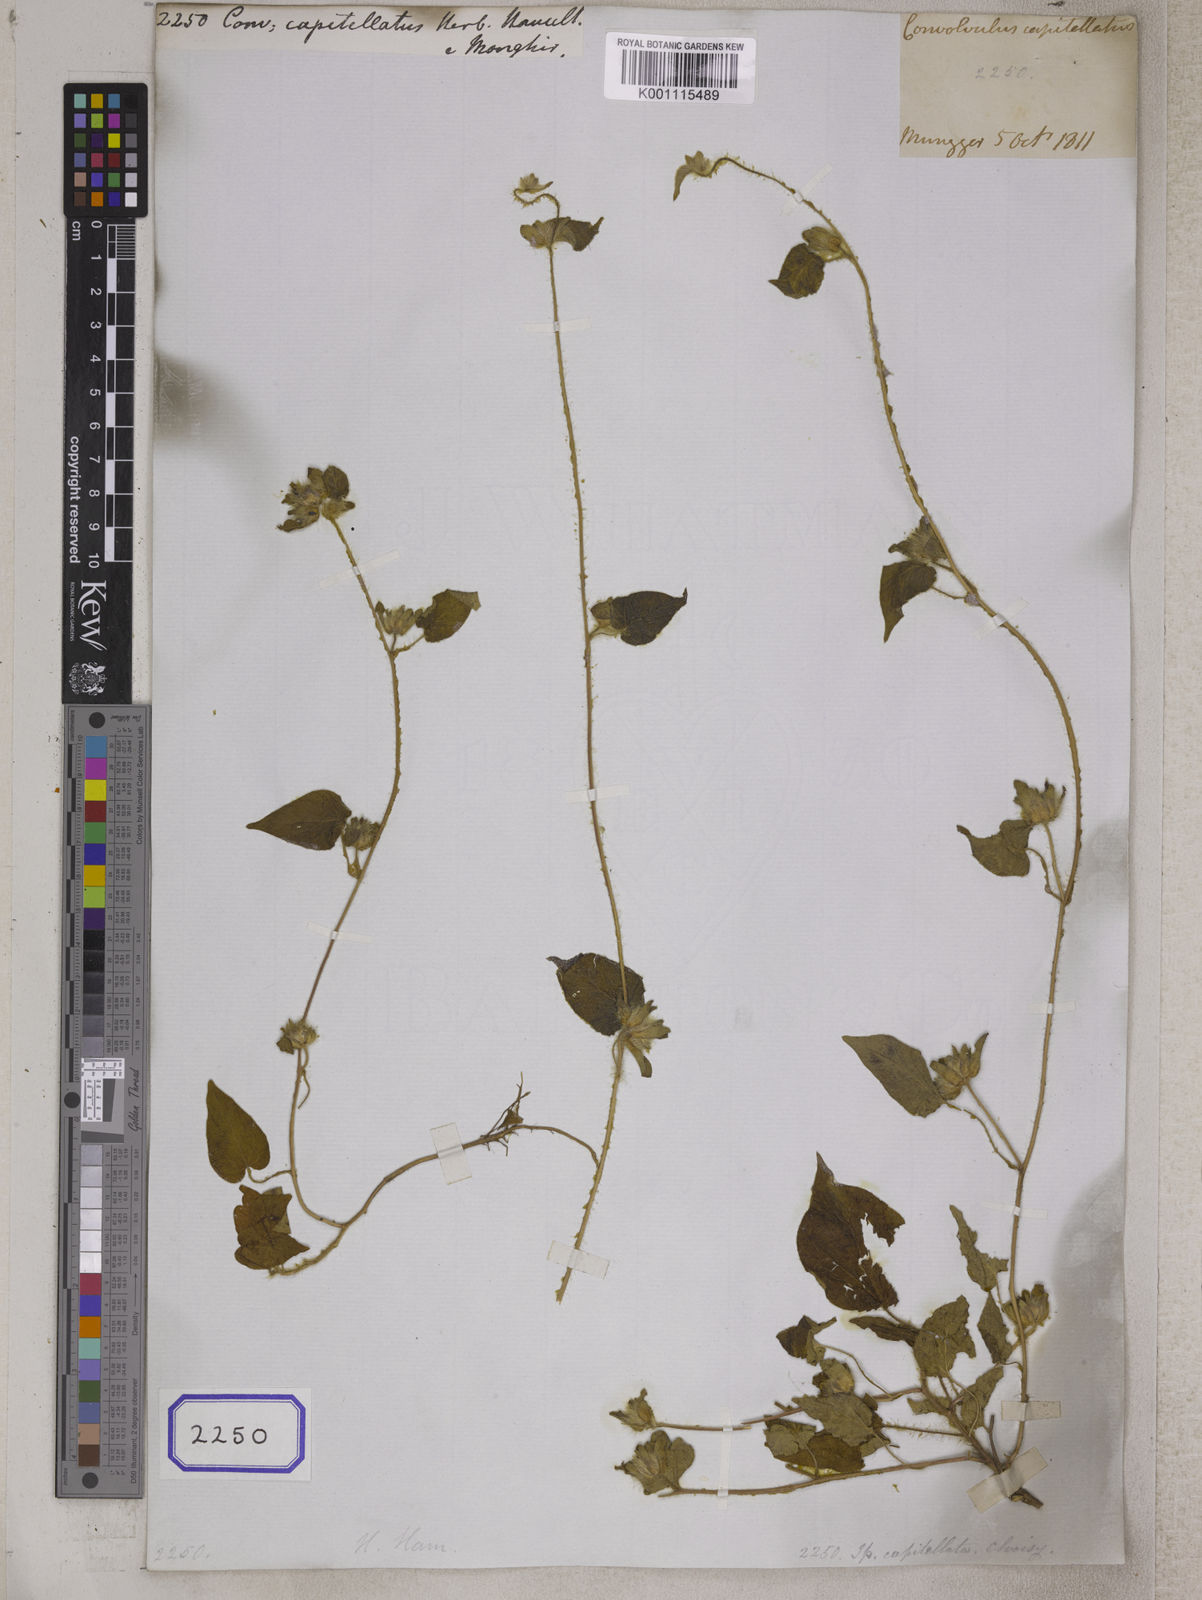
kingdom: Plantae
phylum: Tracheophyta
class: Magnoliopsida
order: Solanales
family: Convolvulaceae
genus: Ipomoea
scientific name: Ipomoea pes-tigridis
